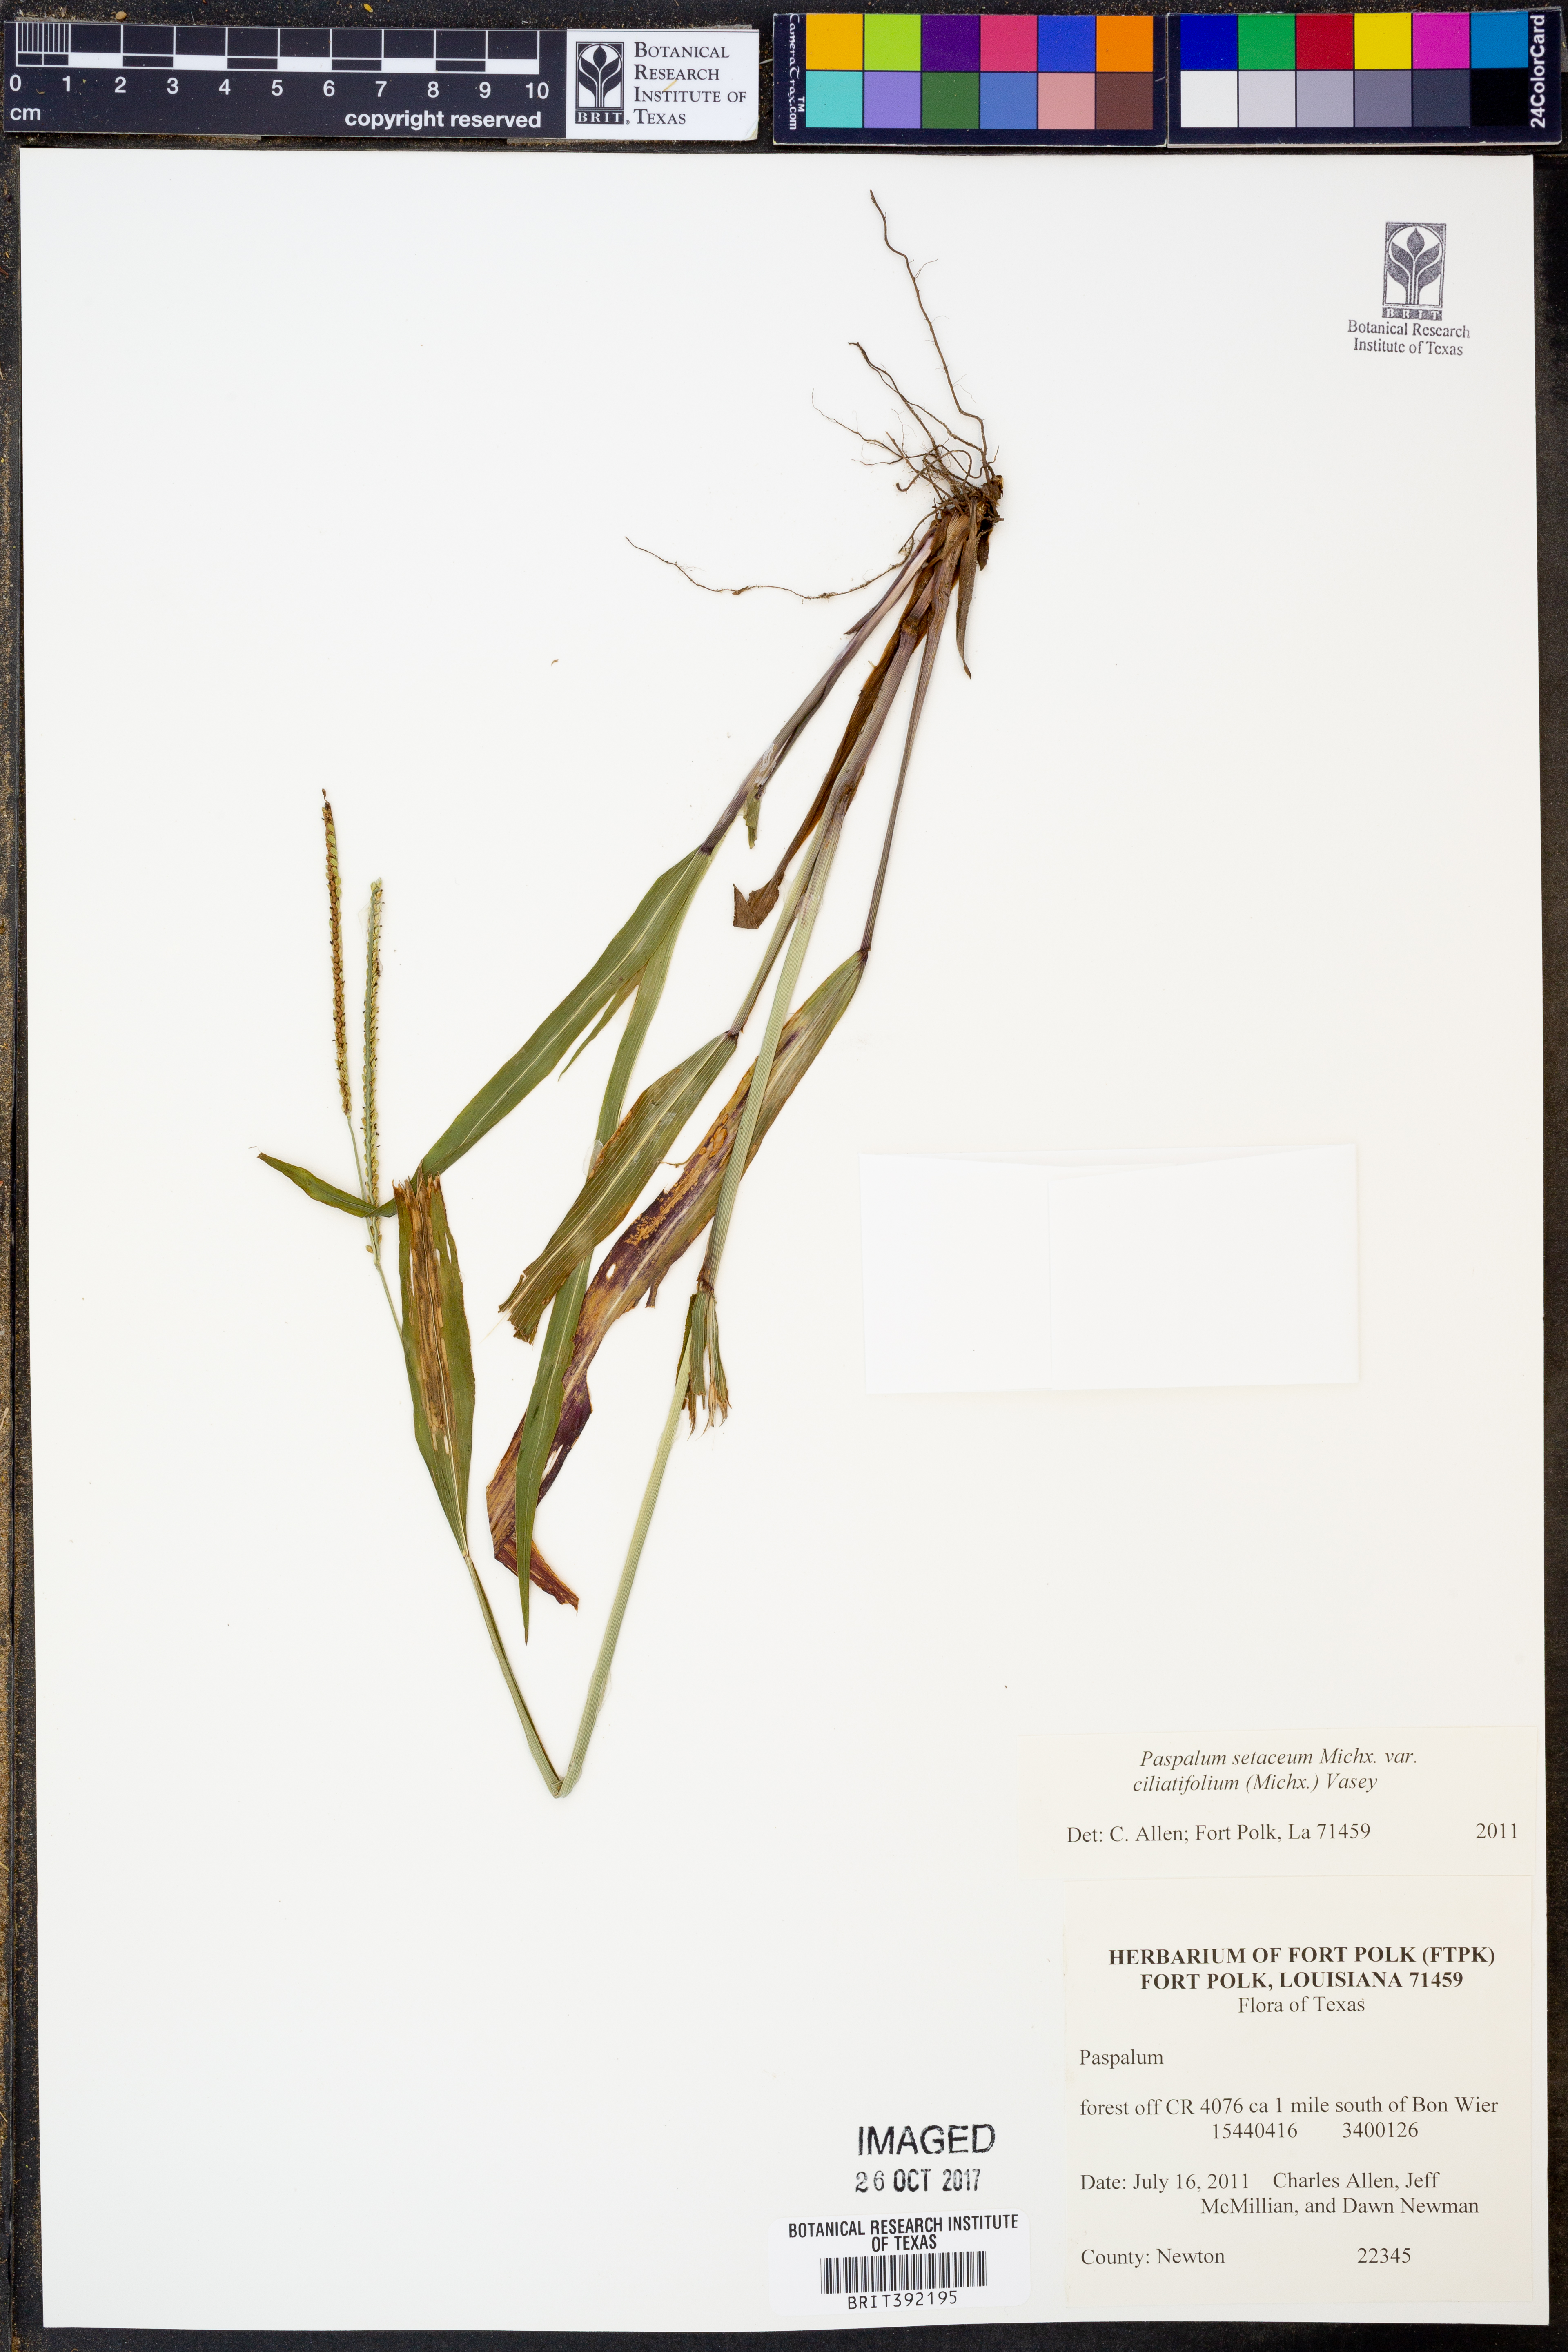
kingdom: Plantae
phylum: Tracheophyta
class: Liliopsida
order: Poales
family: Poaceae
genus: Paspalum
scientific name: Paspalum setaceum
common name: Slender paspalum
